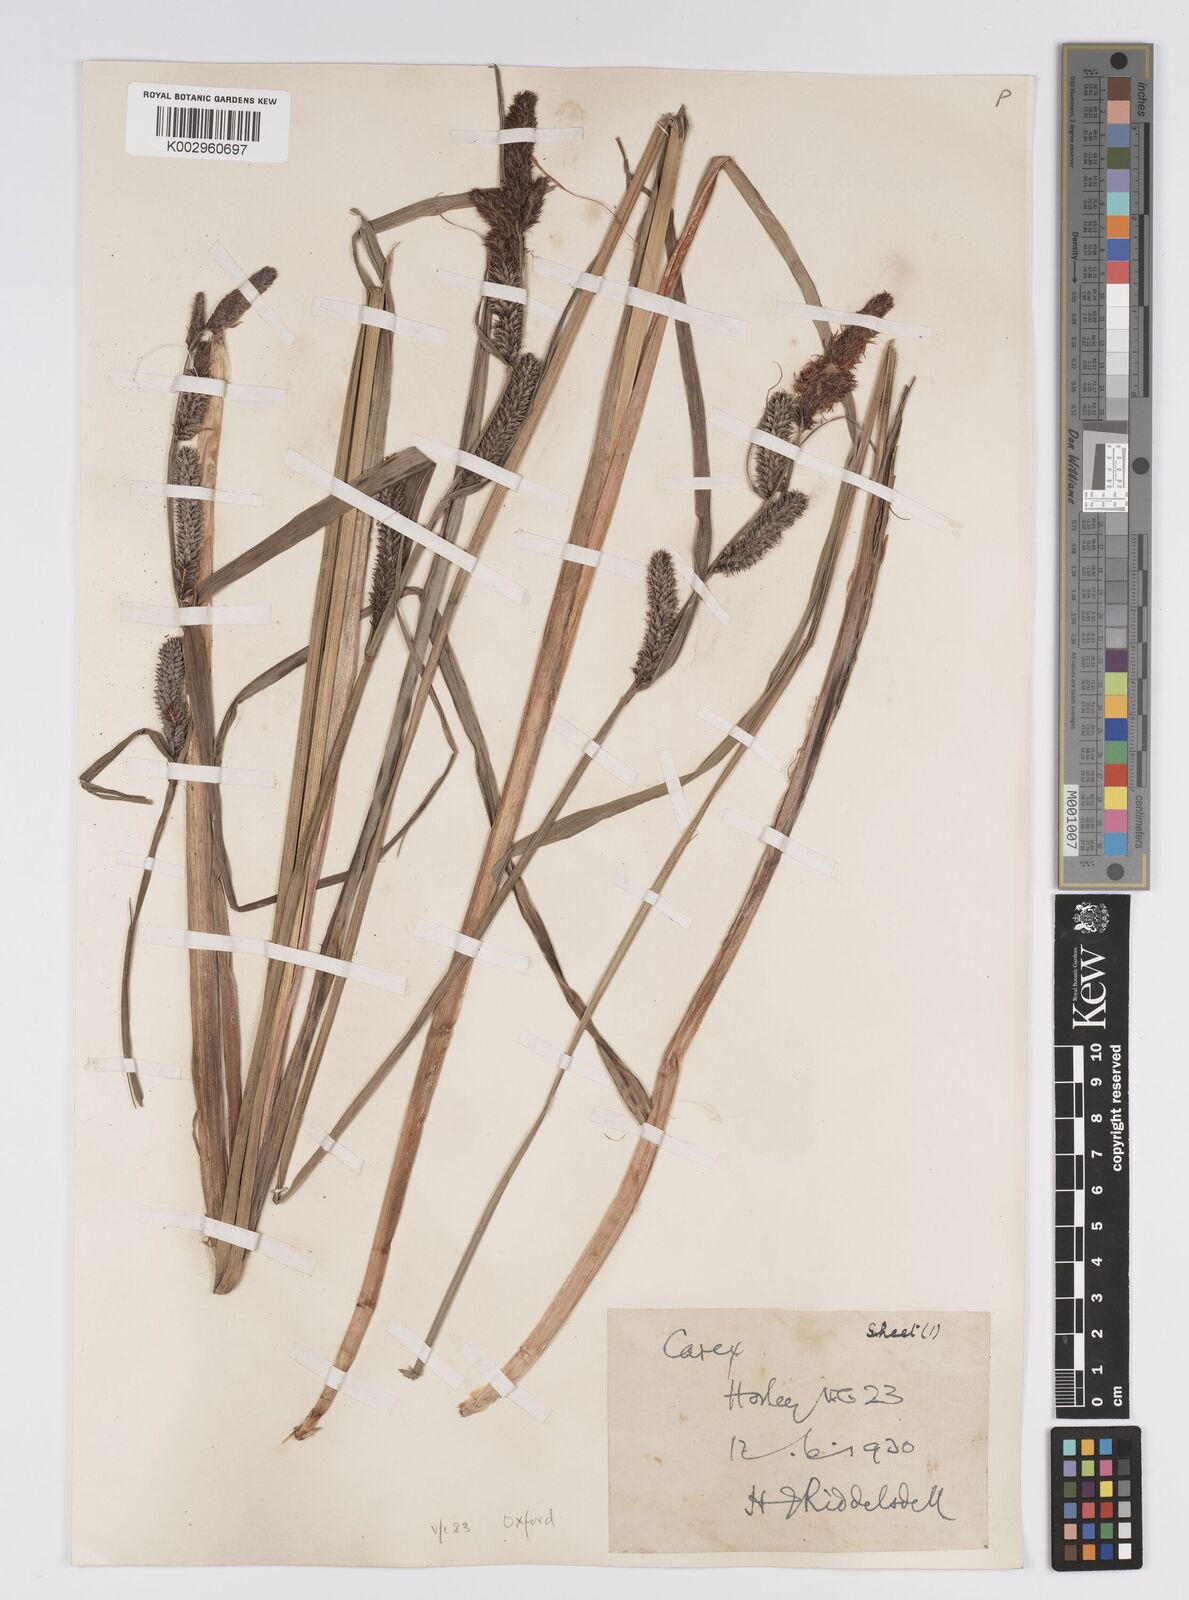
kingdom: Plantae
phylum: Tracheophyta
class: Liliopsida
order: Poales
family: Cyperaceae
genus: Carex
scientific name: Carex acutiformis
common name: Lesser pond-sedge
